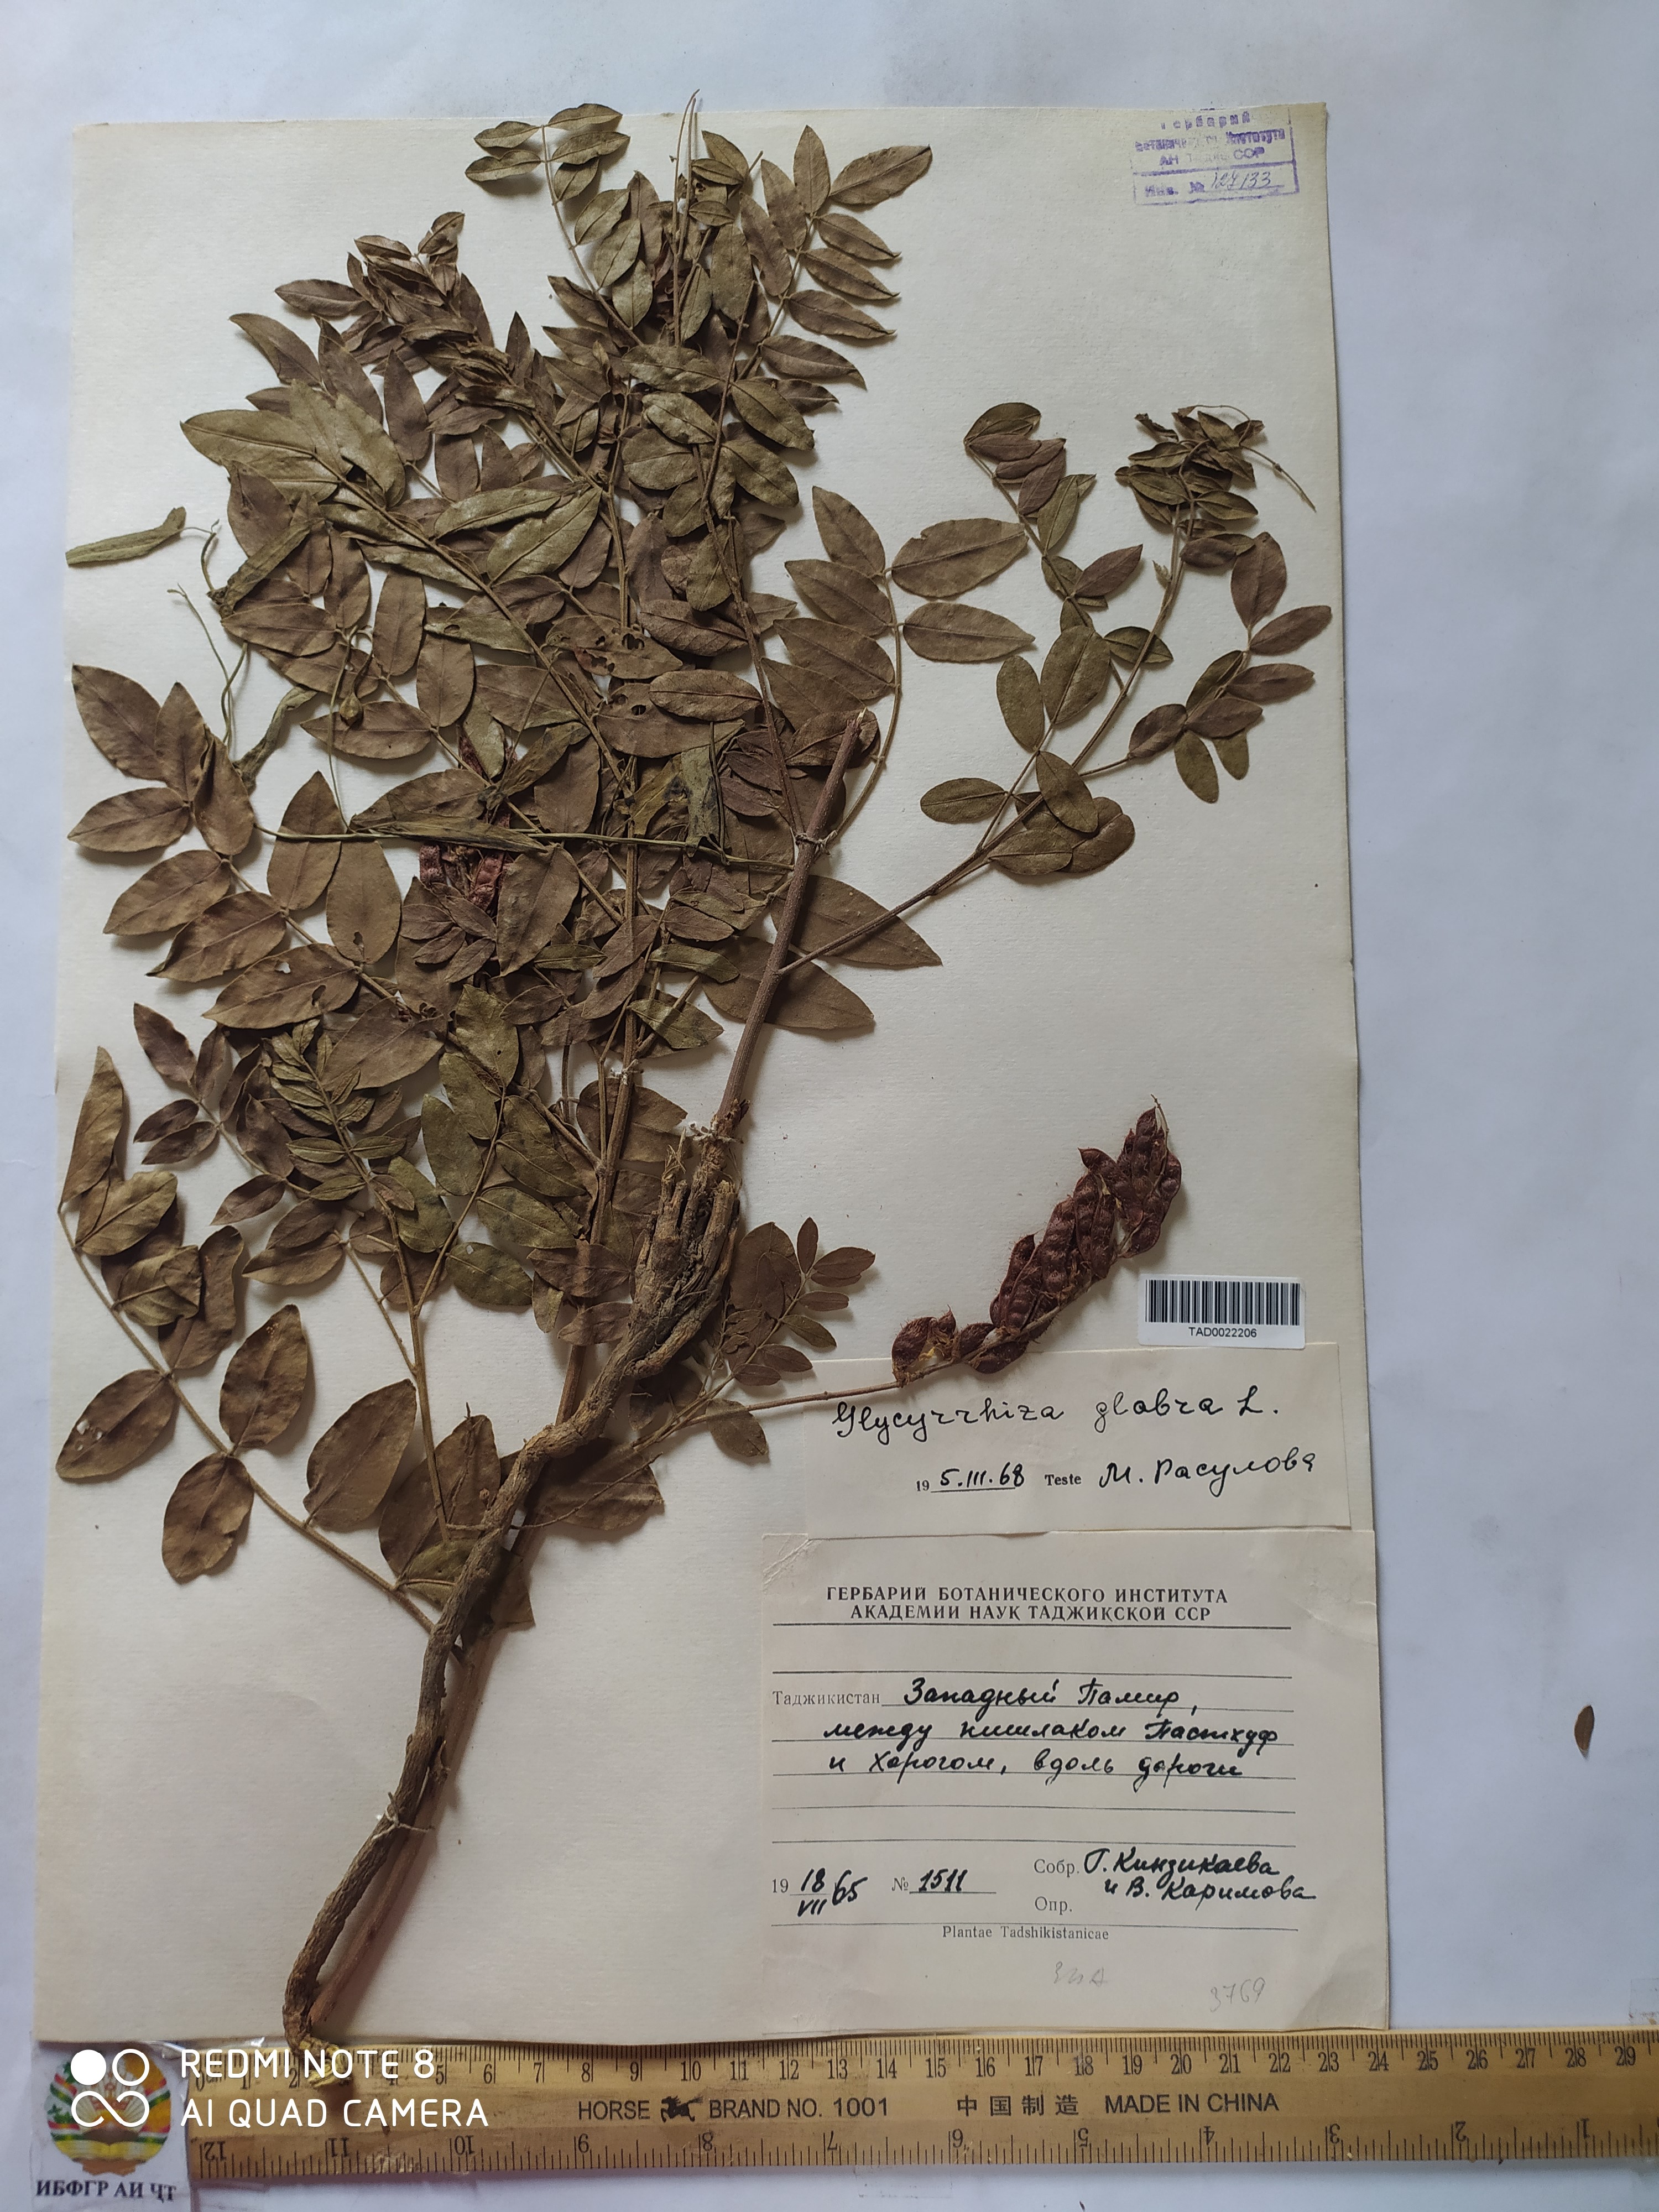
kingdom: Plantae
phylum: Tracheophyta
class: Magnoliopsida
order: Fabales
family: Fabaceae
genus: Glycyrrhiza
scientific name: Glycyrrhiza glabra
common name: Liquorice
